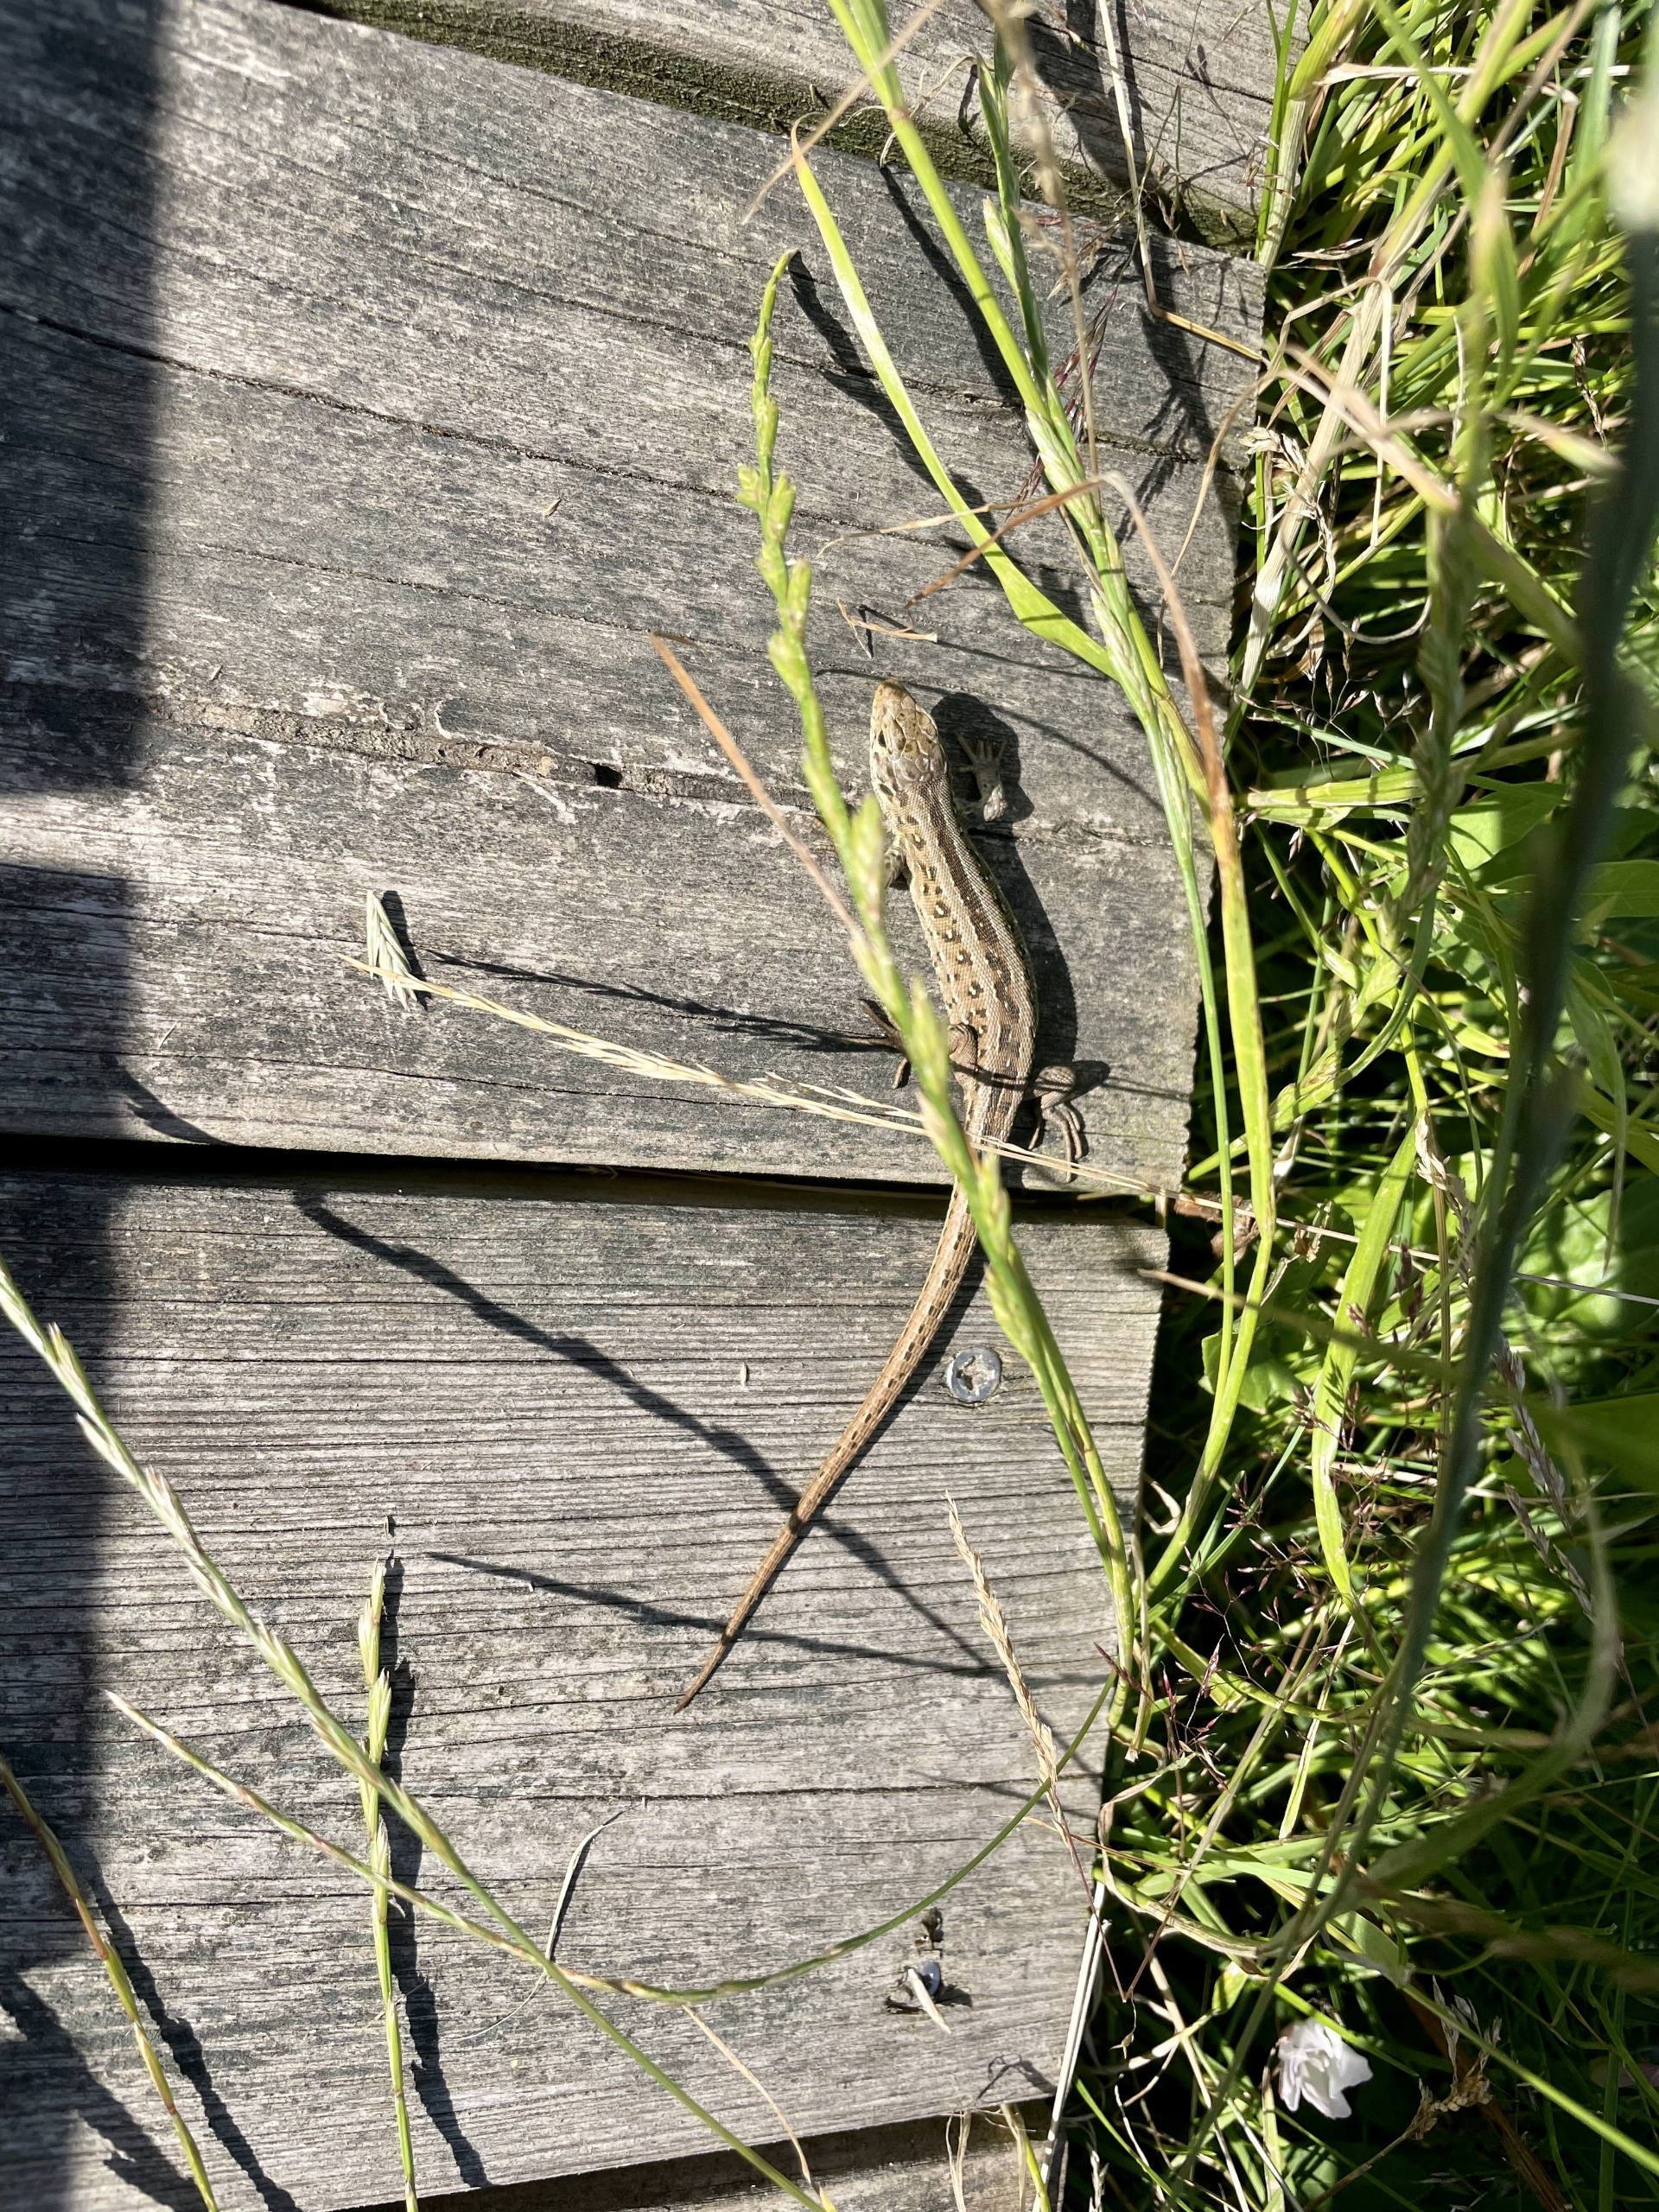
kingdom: Animalia
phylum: Chordata
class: Squamata
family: Lacertidae
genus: Lacerta
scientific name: Lacerta agilis
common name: Markfirben
